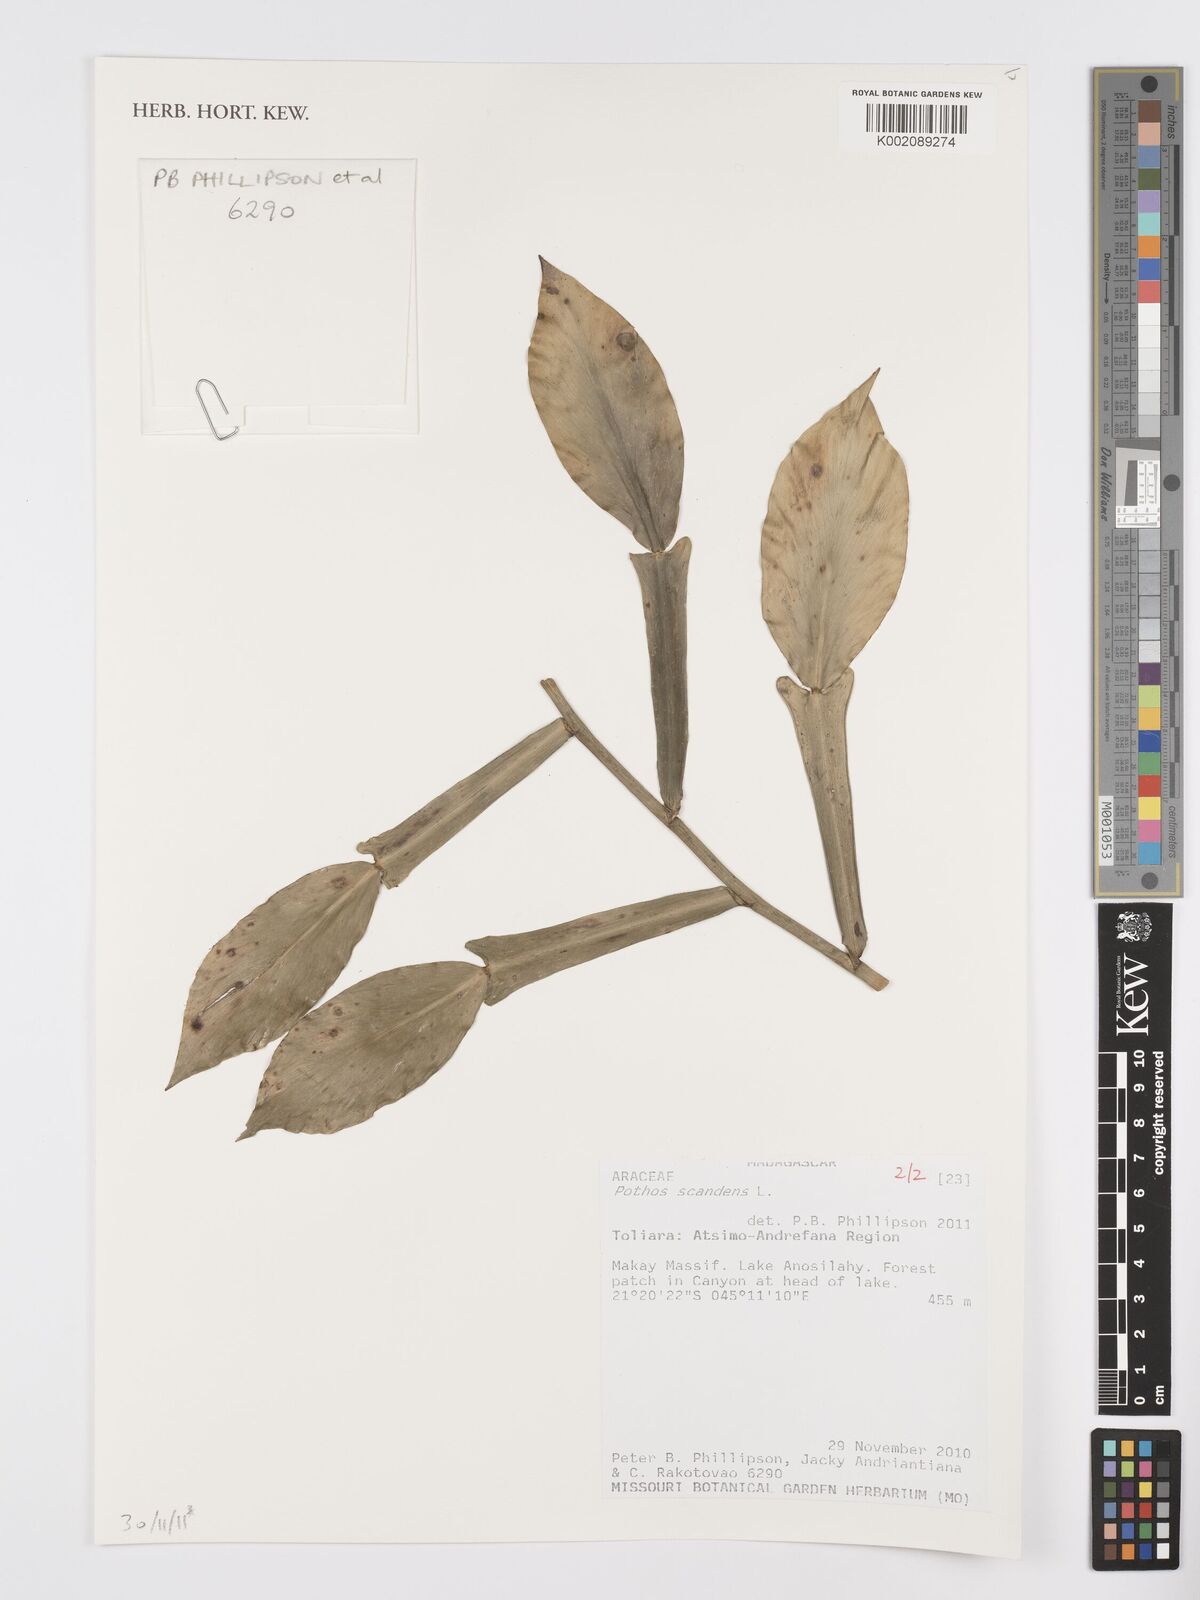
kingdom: Plantae
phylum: Tracheophyta
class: Liliopsida
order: Alismatales
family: Araceae
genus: Pothos
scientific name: Pothos scandens
